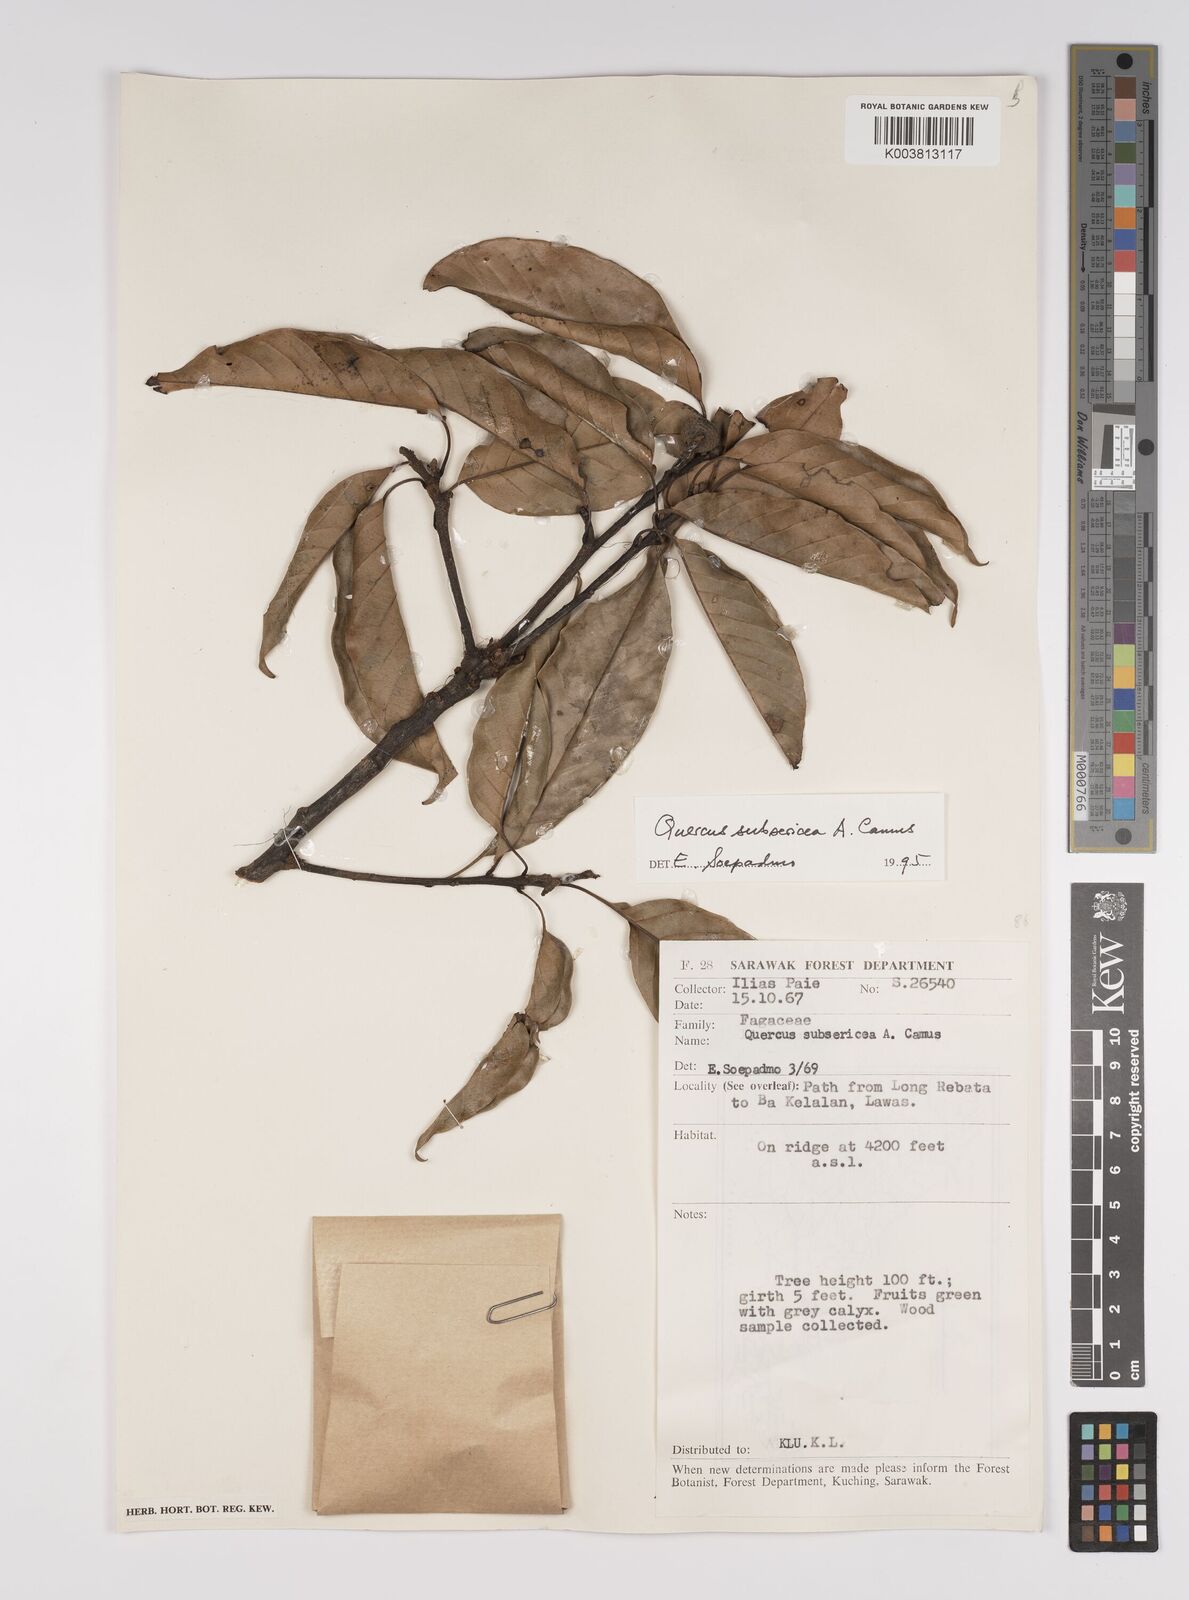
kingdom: Plantae
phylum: Tracheophyta
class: Magnoliopsida
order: Fagales
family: Fagaceae
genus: Quercus
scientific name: Quercus subsericea
